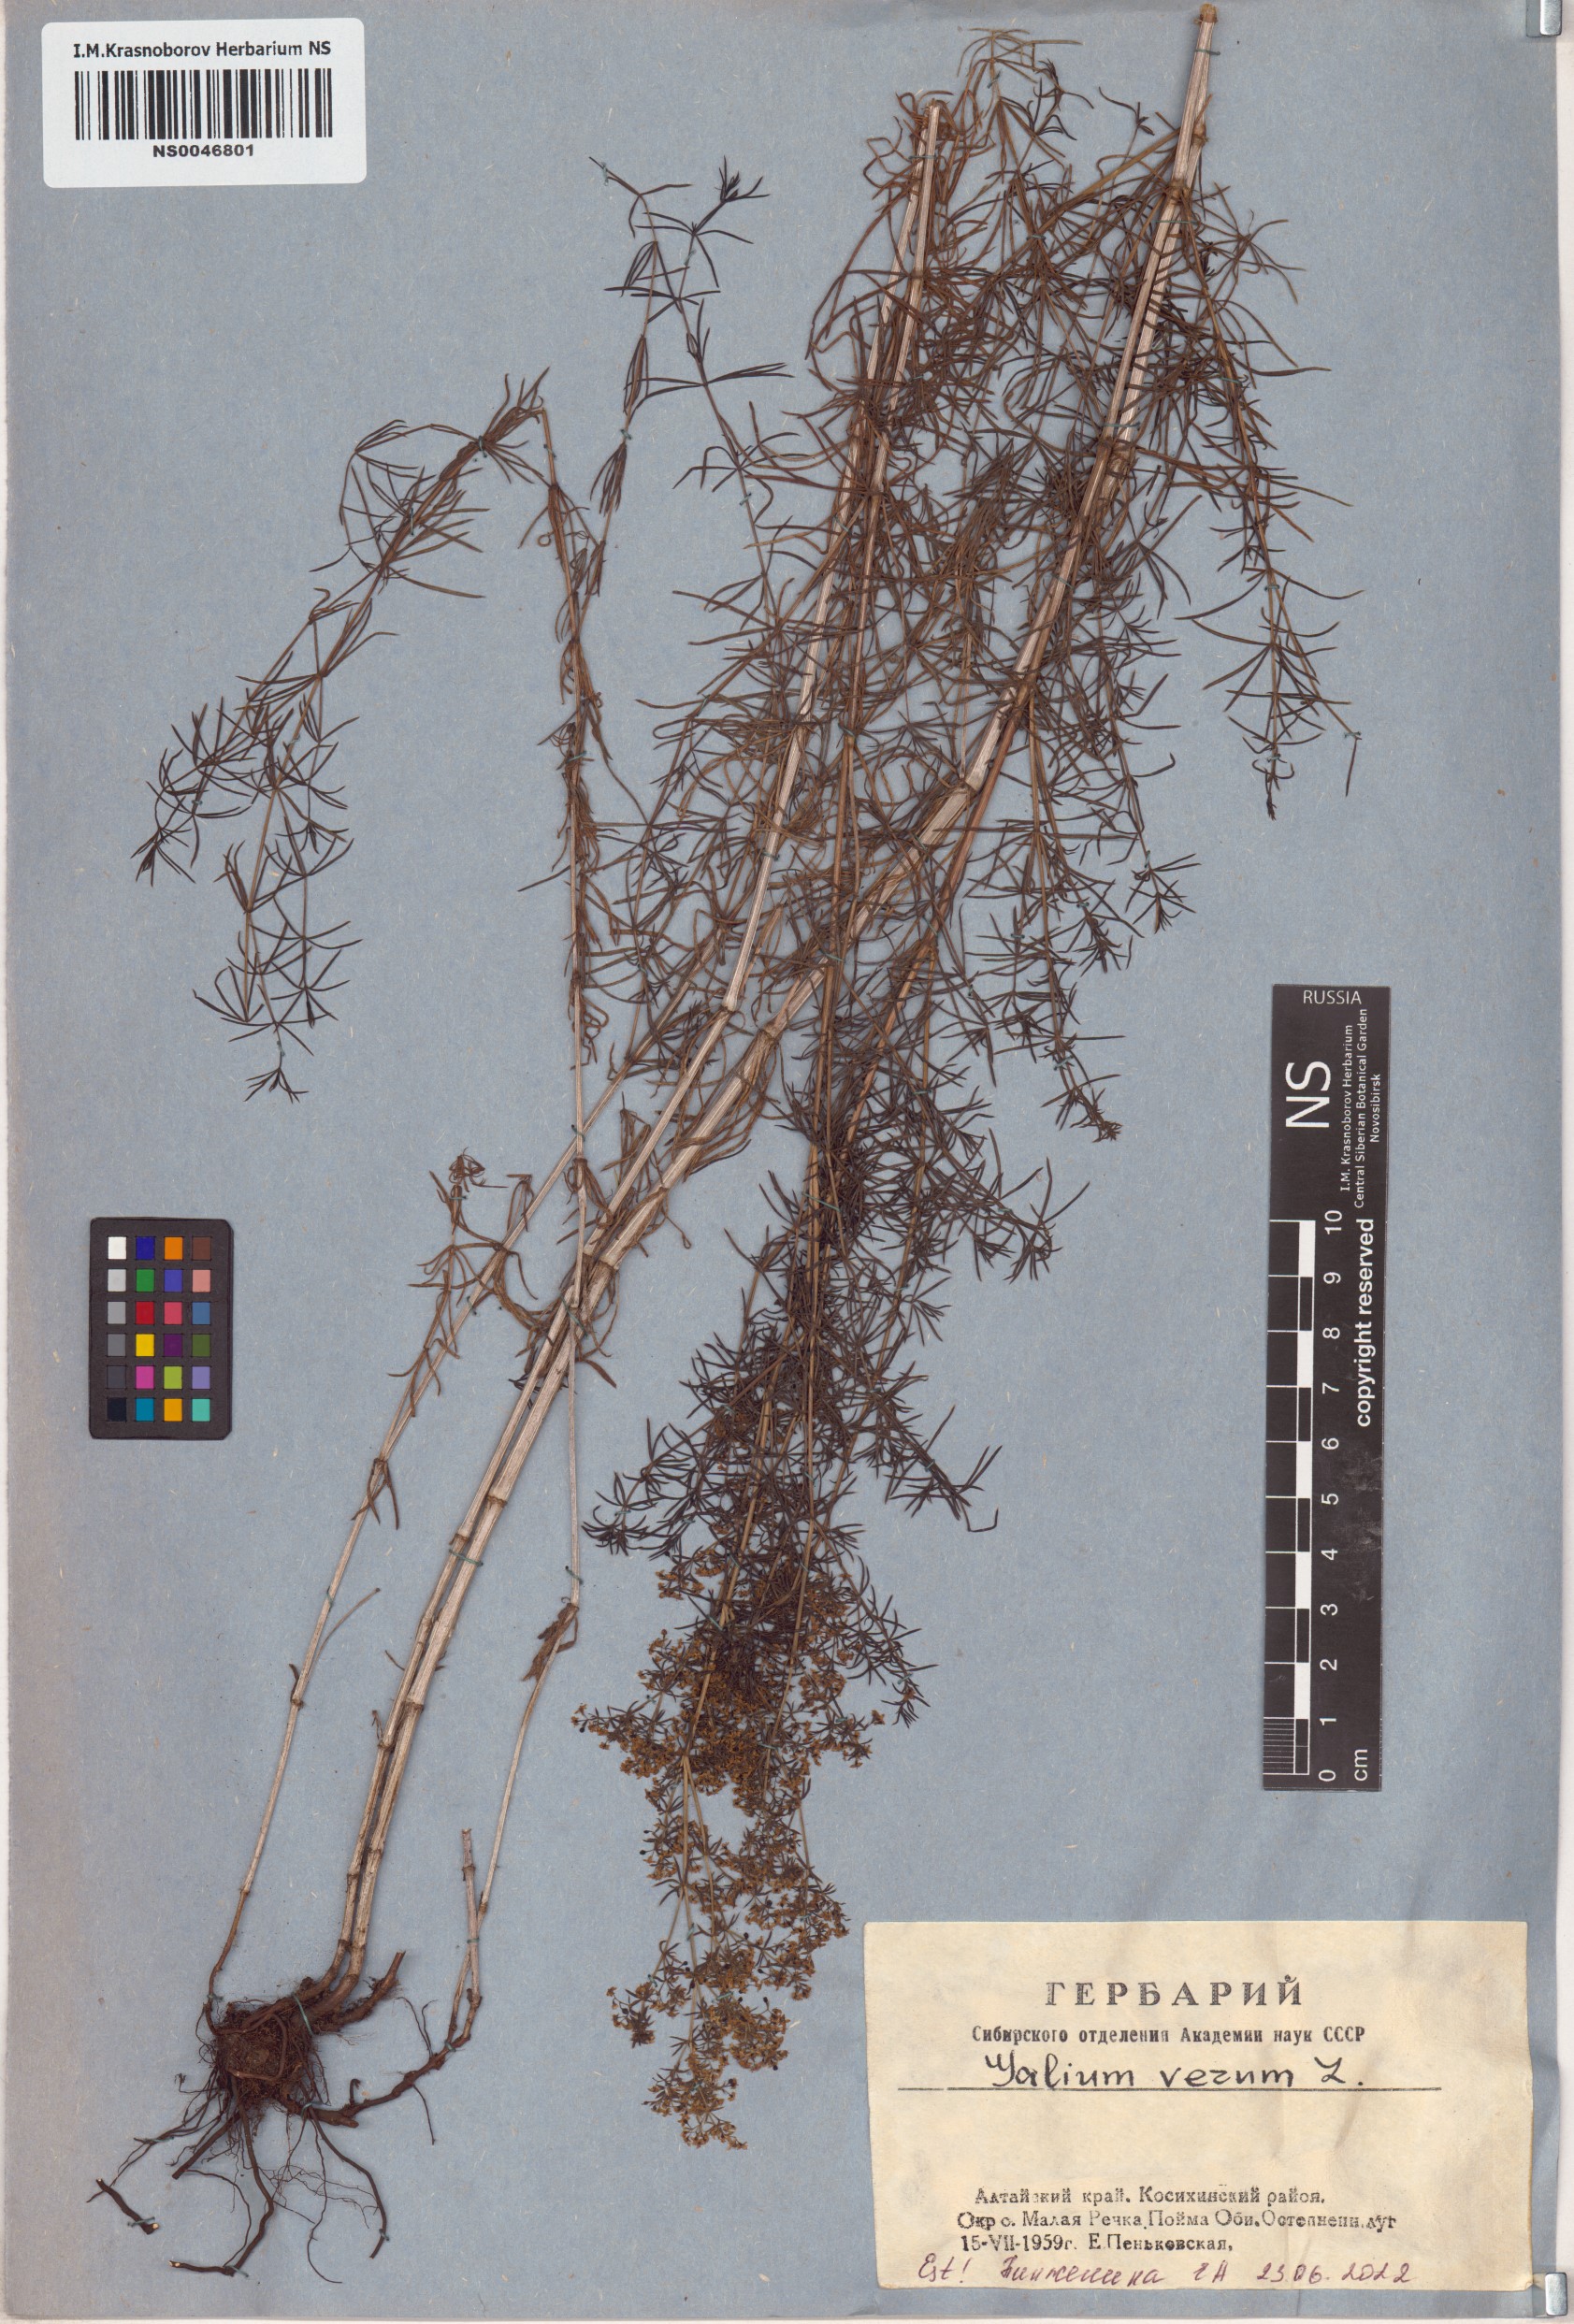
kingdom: Plantae
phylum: Tracheophyta
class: Magnoliopsida
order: Gentianales
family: Rubiaceae
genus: Galium
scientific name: Galium verum
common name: Lady's bedstraw
